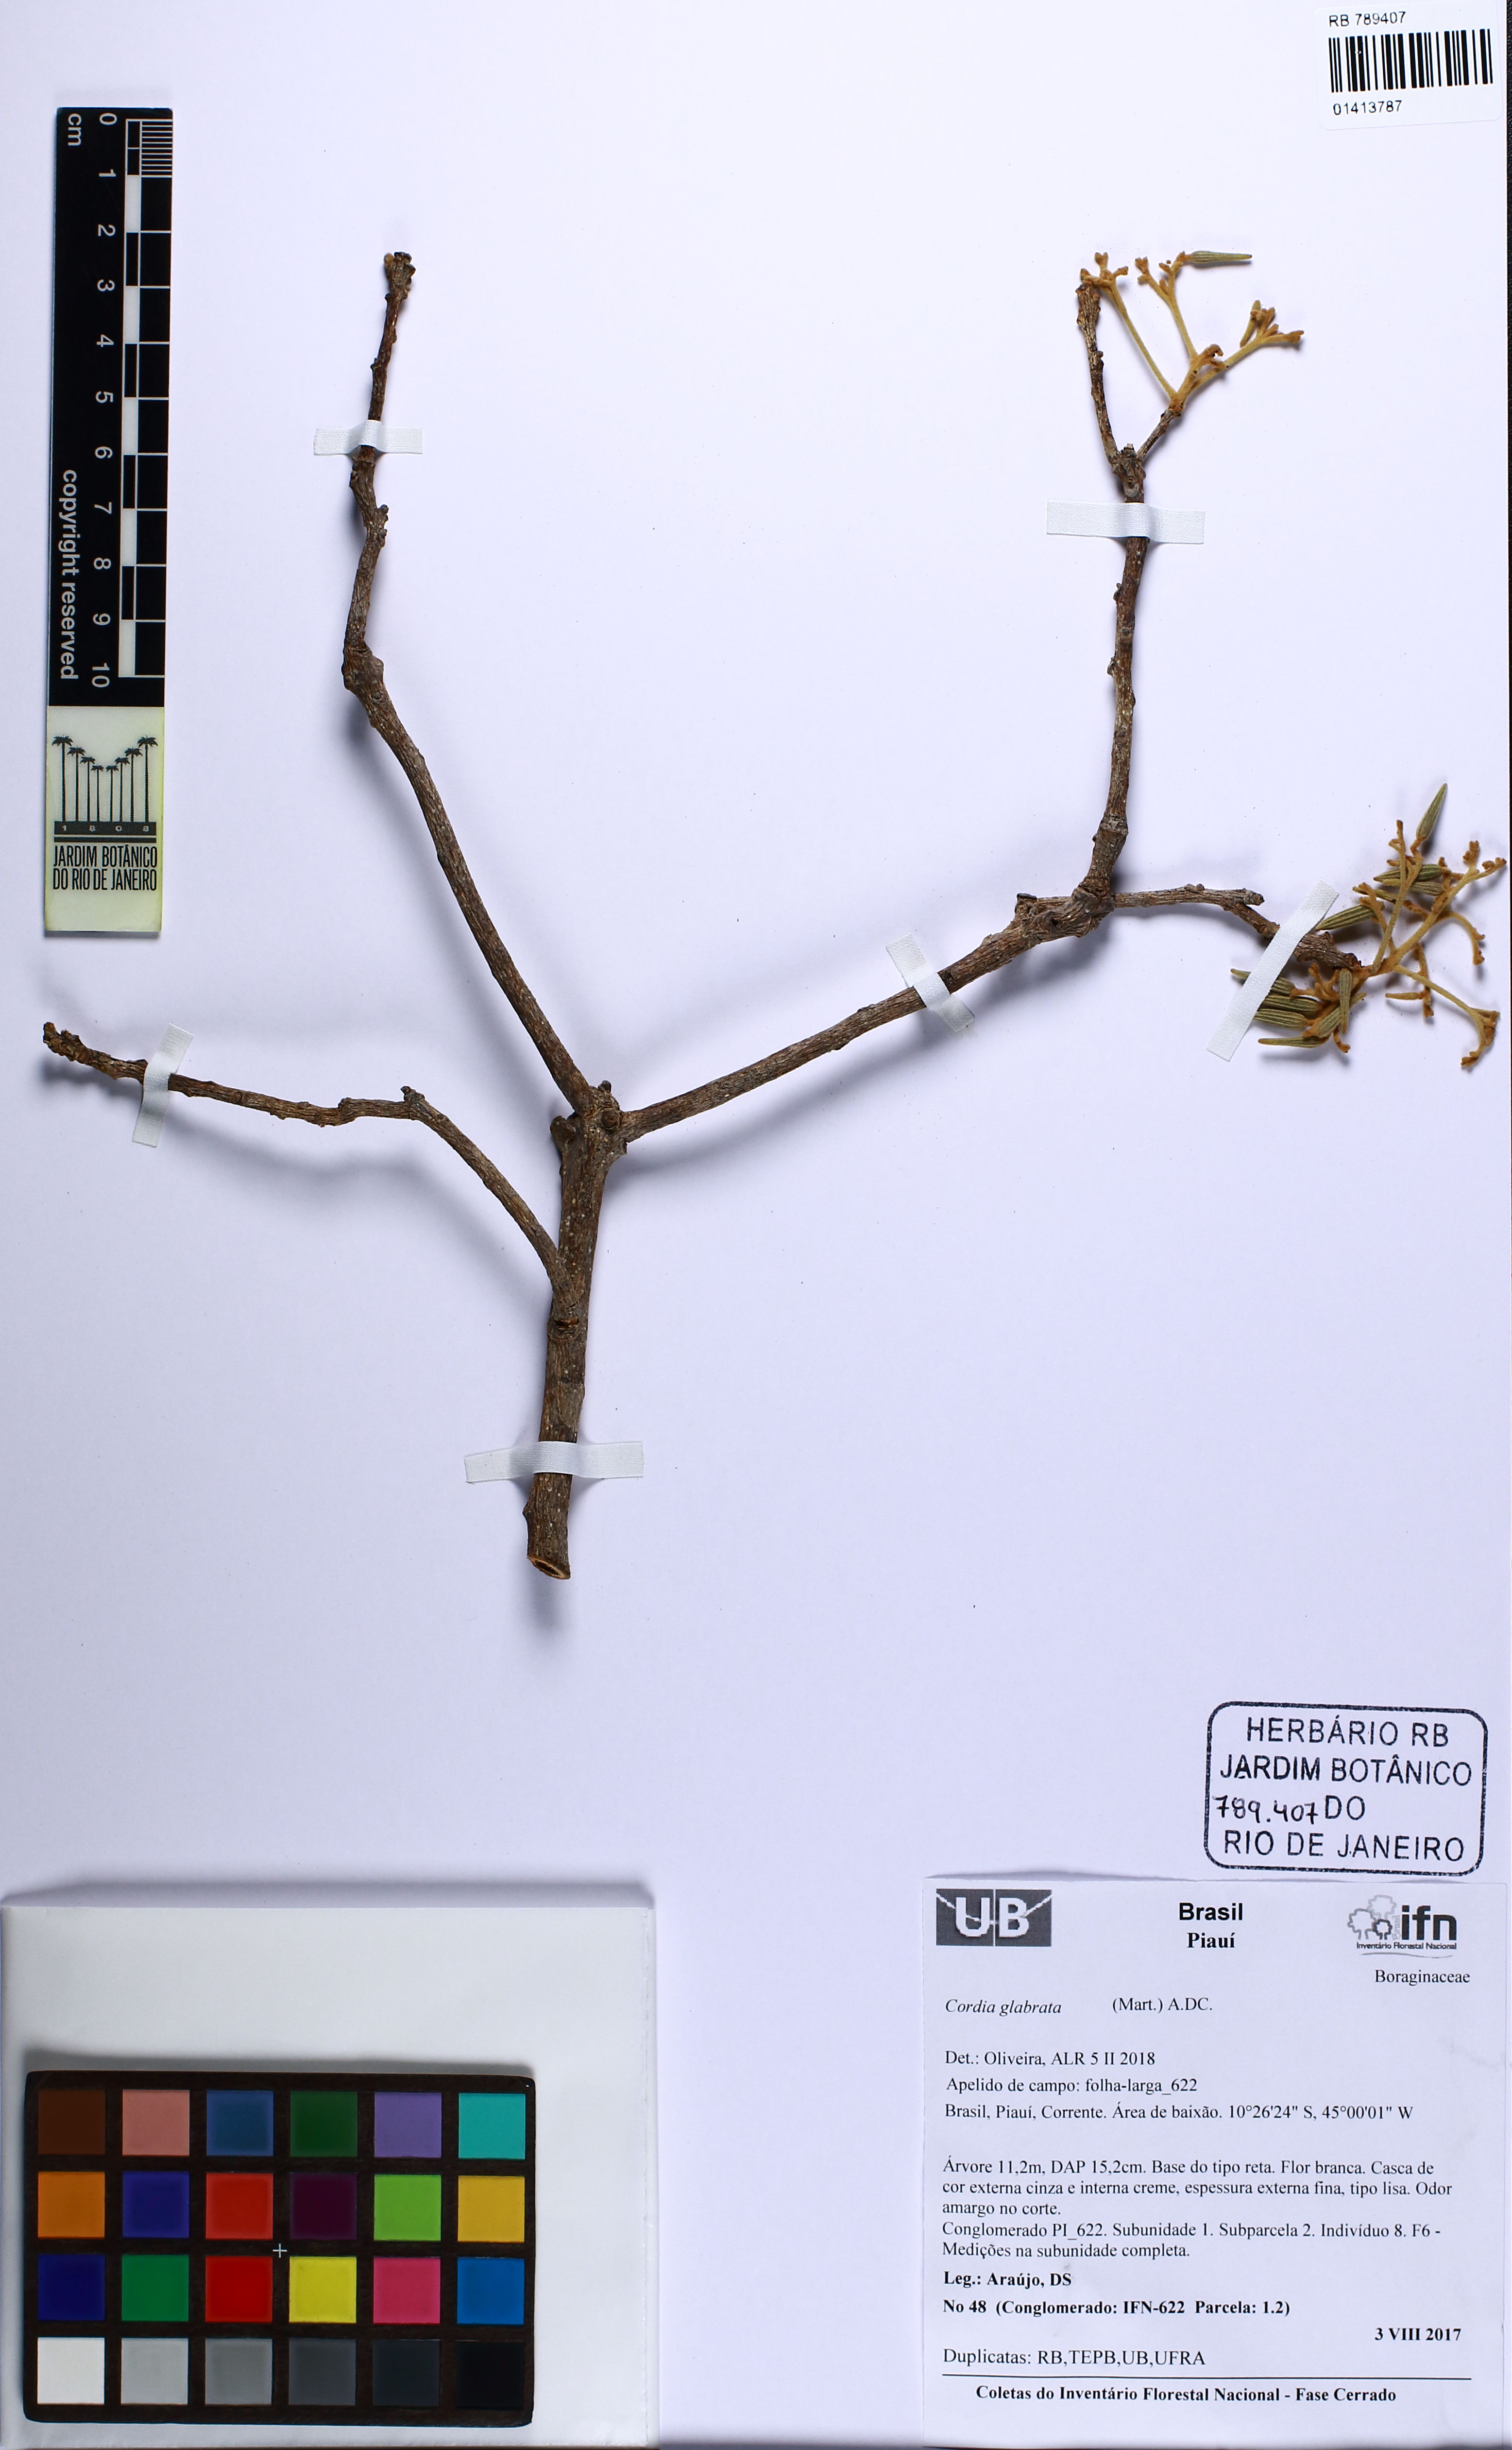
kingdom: Plantae
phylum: Tracheophyta
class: Magnoliopsida
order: Boraginales
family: Cordiaceae
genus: Cordia
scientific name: Cordia glabrata
